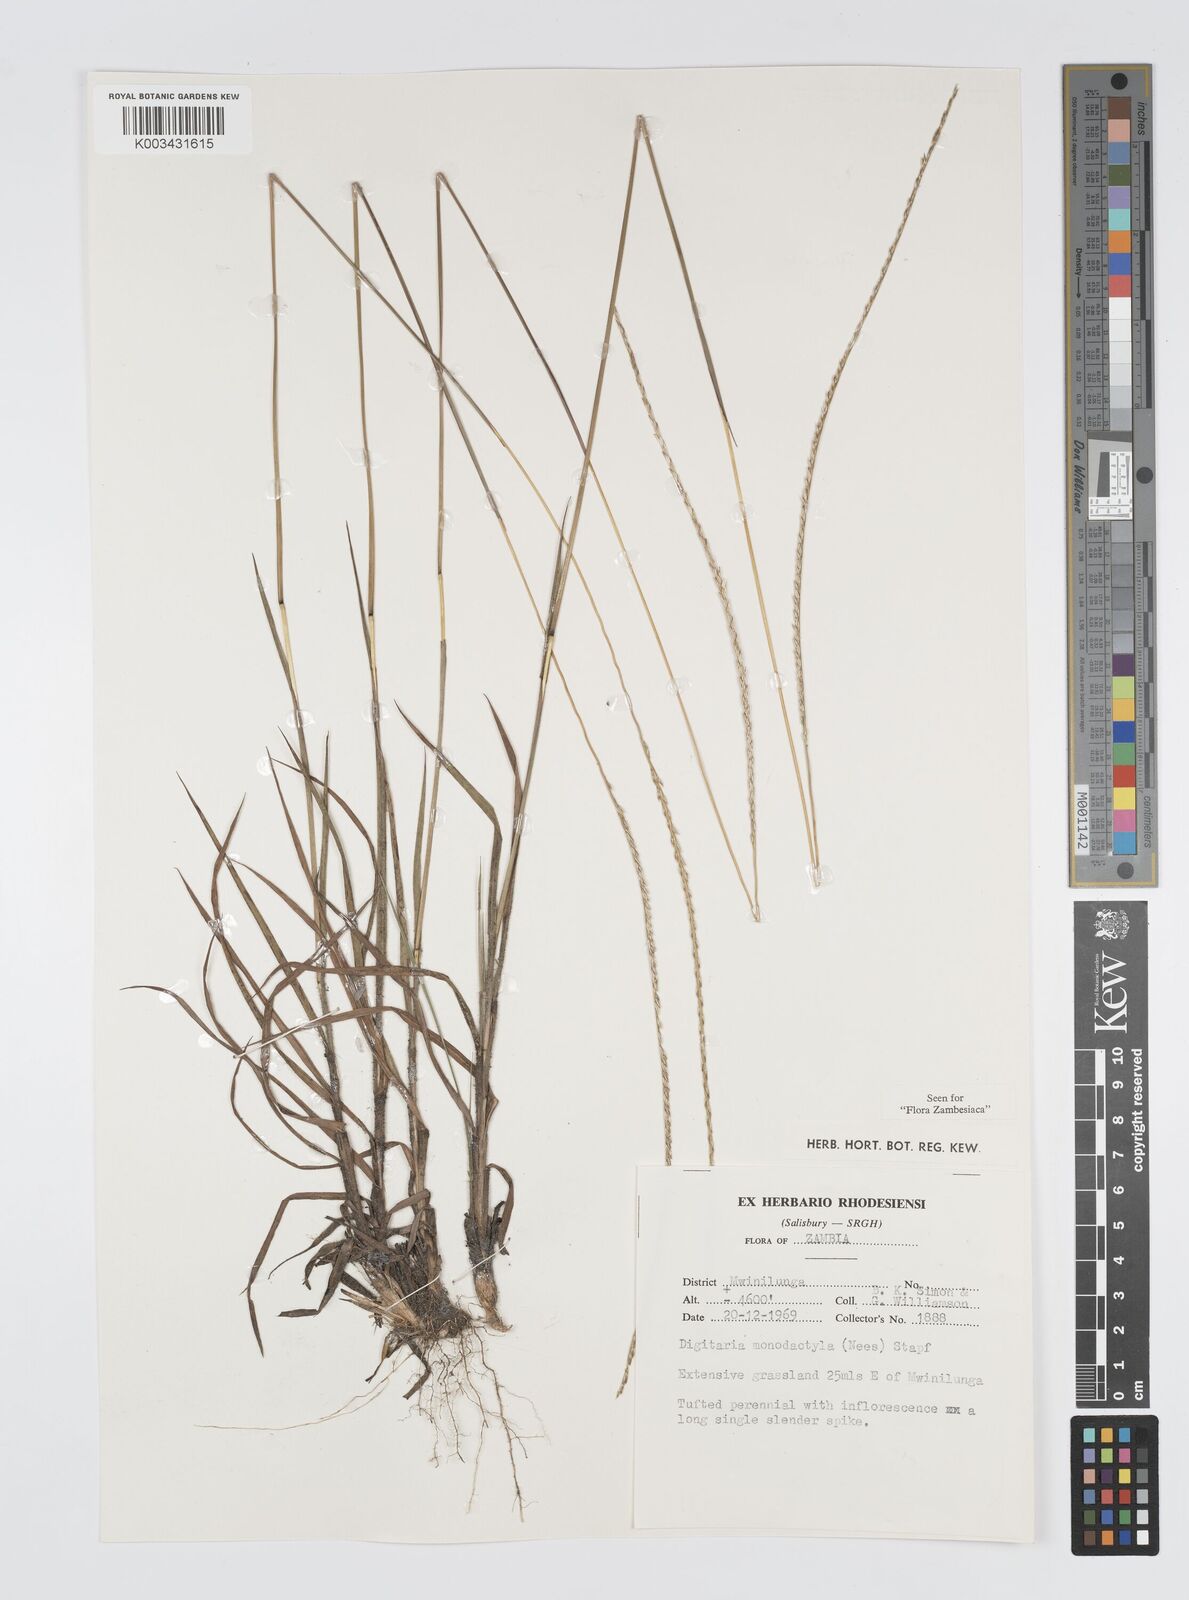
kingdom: Plantae
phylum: Tracheophyta
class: Liliopsida
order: Poales
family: Poaceae
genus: Digitaria
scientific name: Digitaria monodactyla
